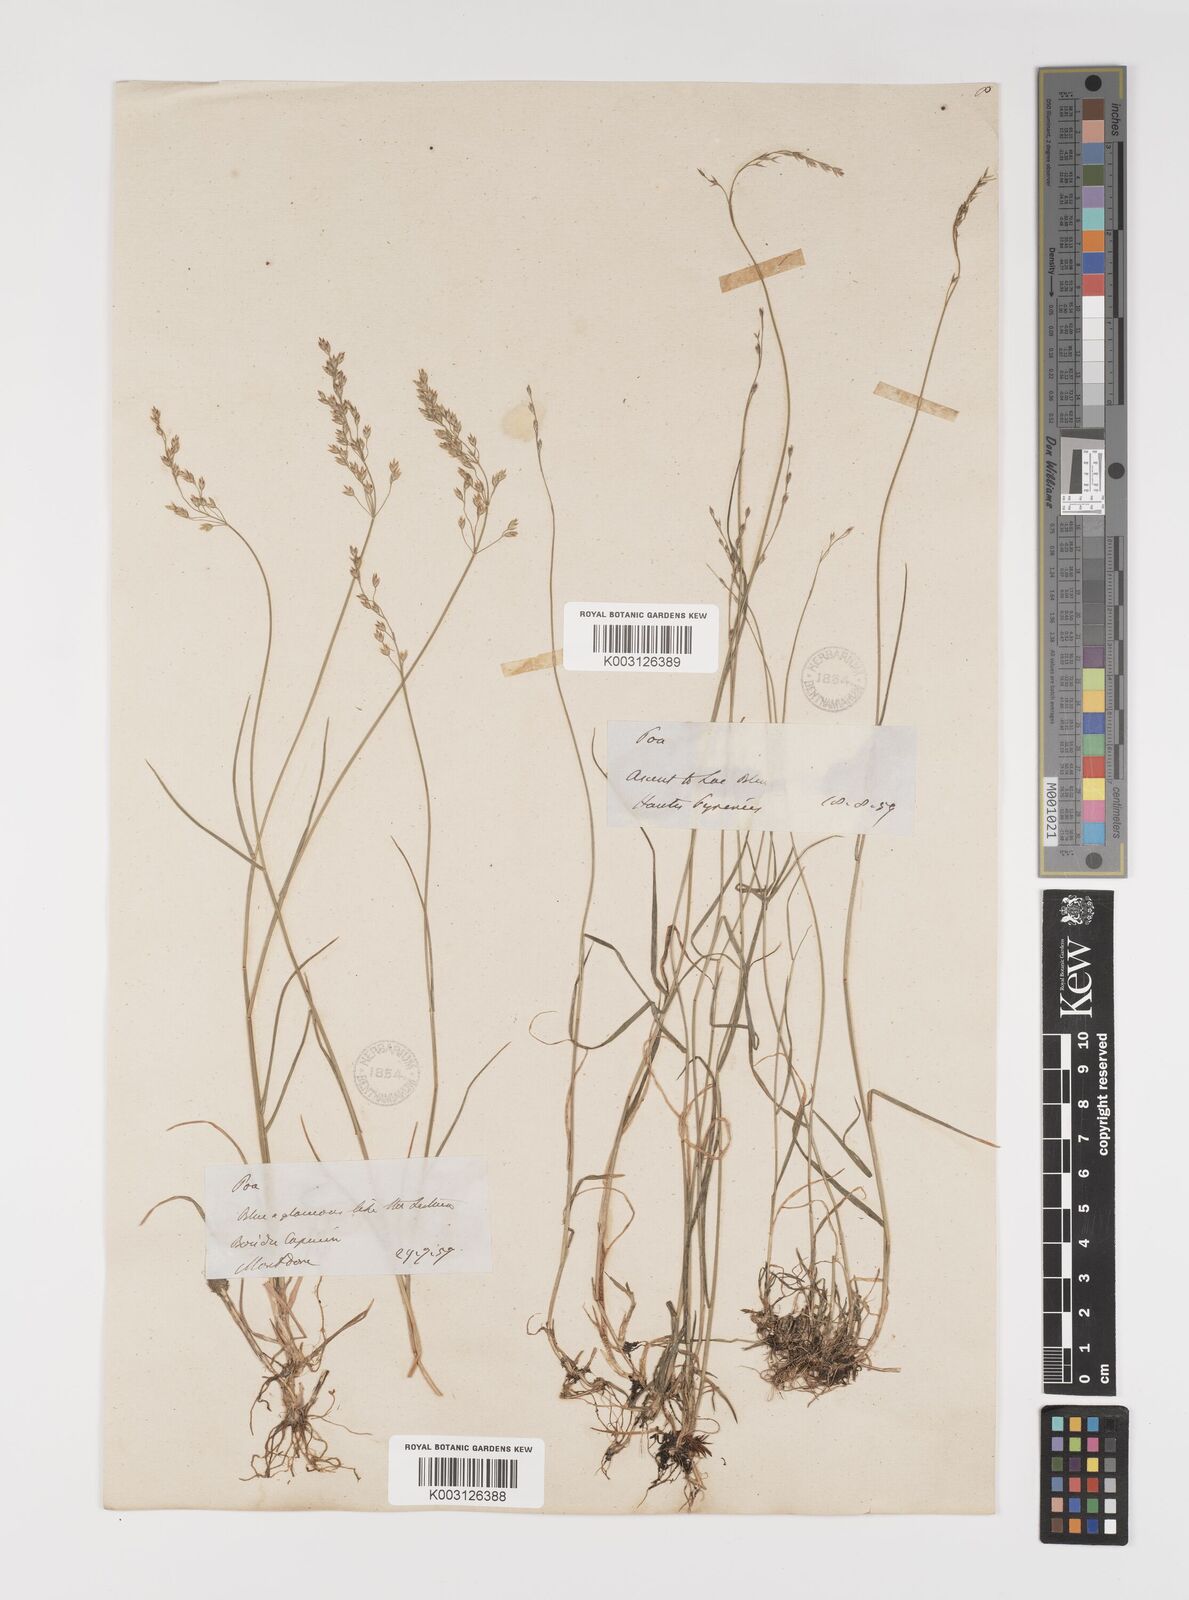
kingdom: Plantae
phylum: Tracheophyta
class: Liliopsida
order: Poales
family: Poaceae
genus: Poa
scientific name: Poa glauca
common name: Glaucous bluegrass
